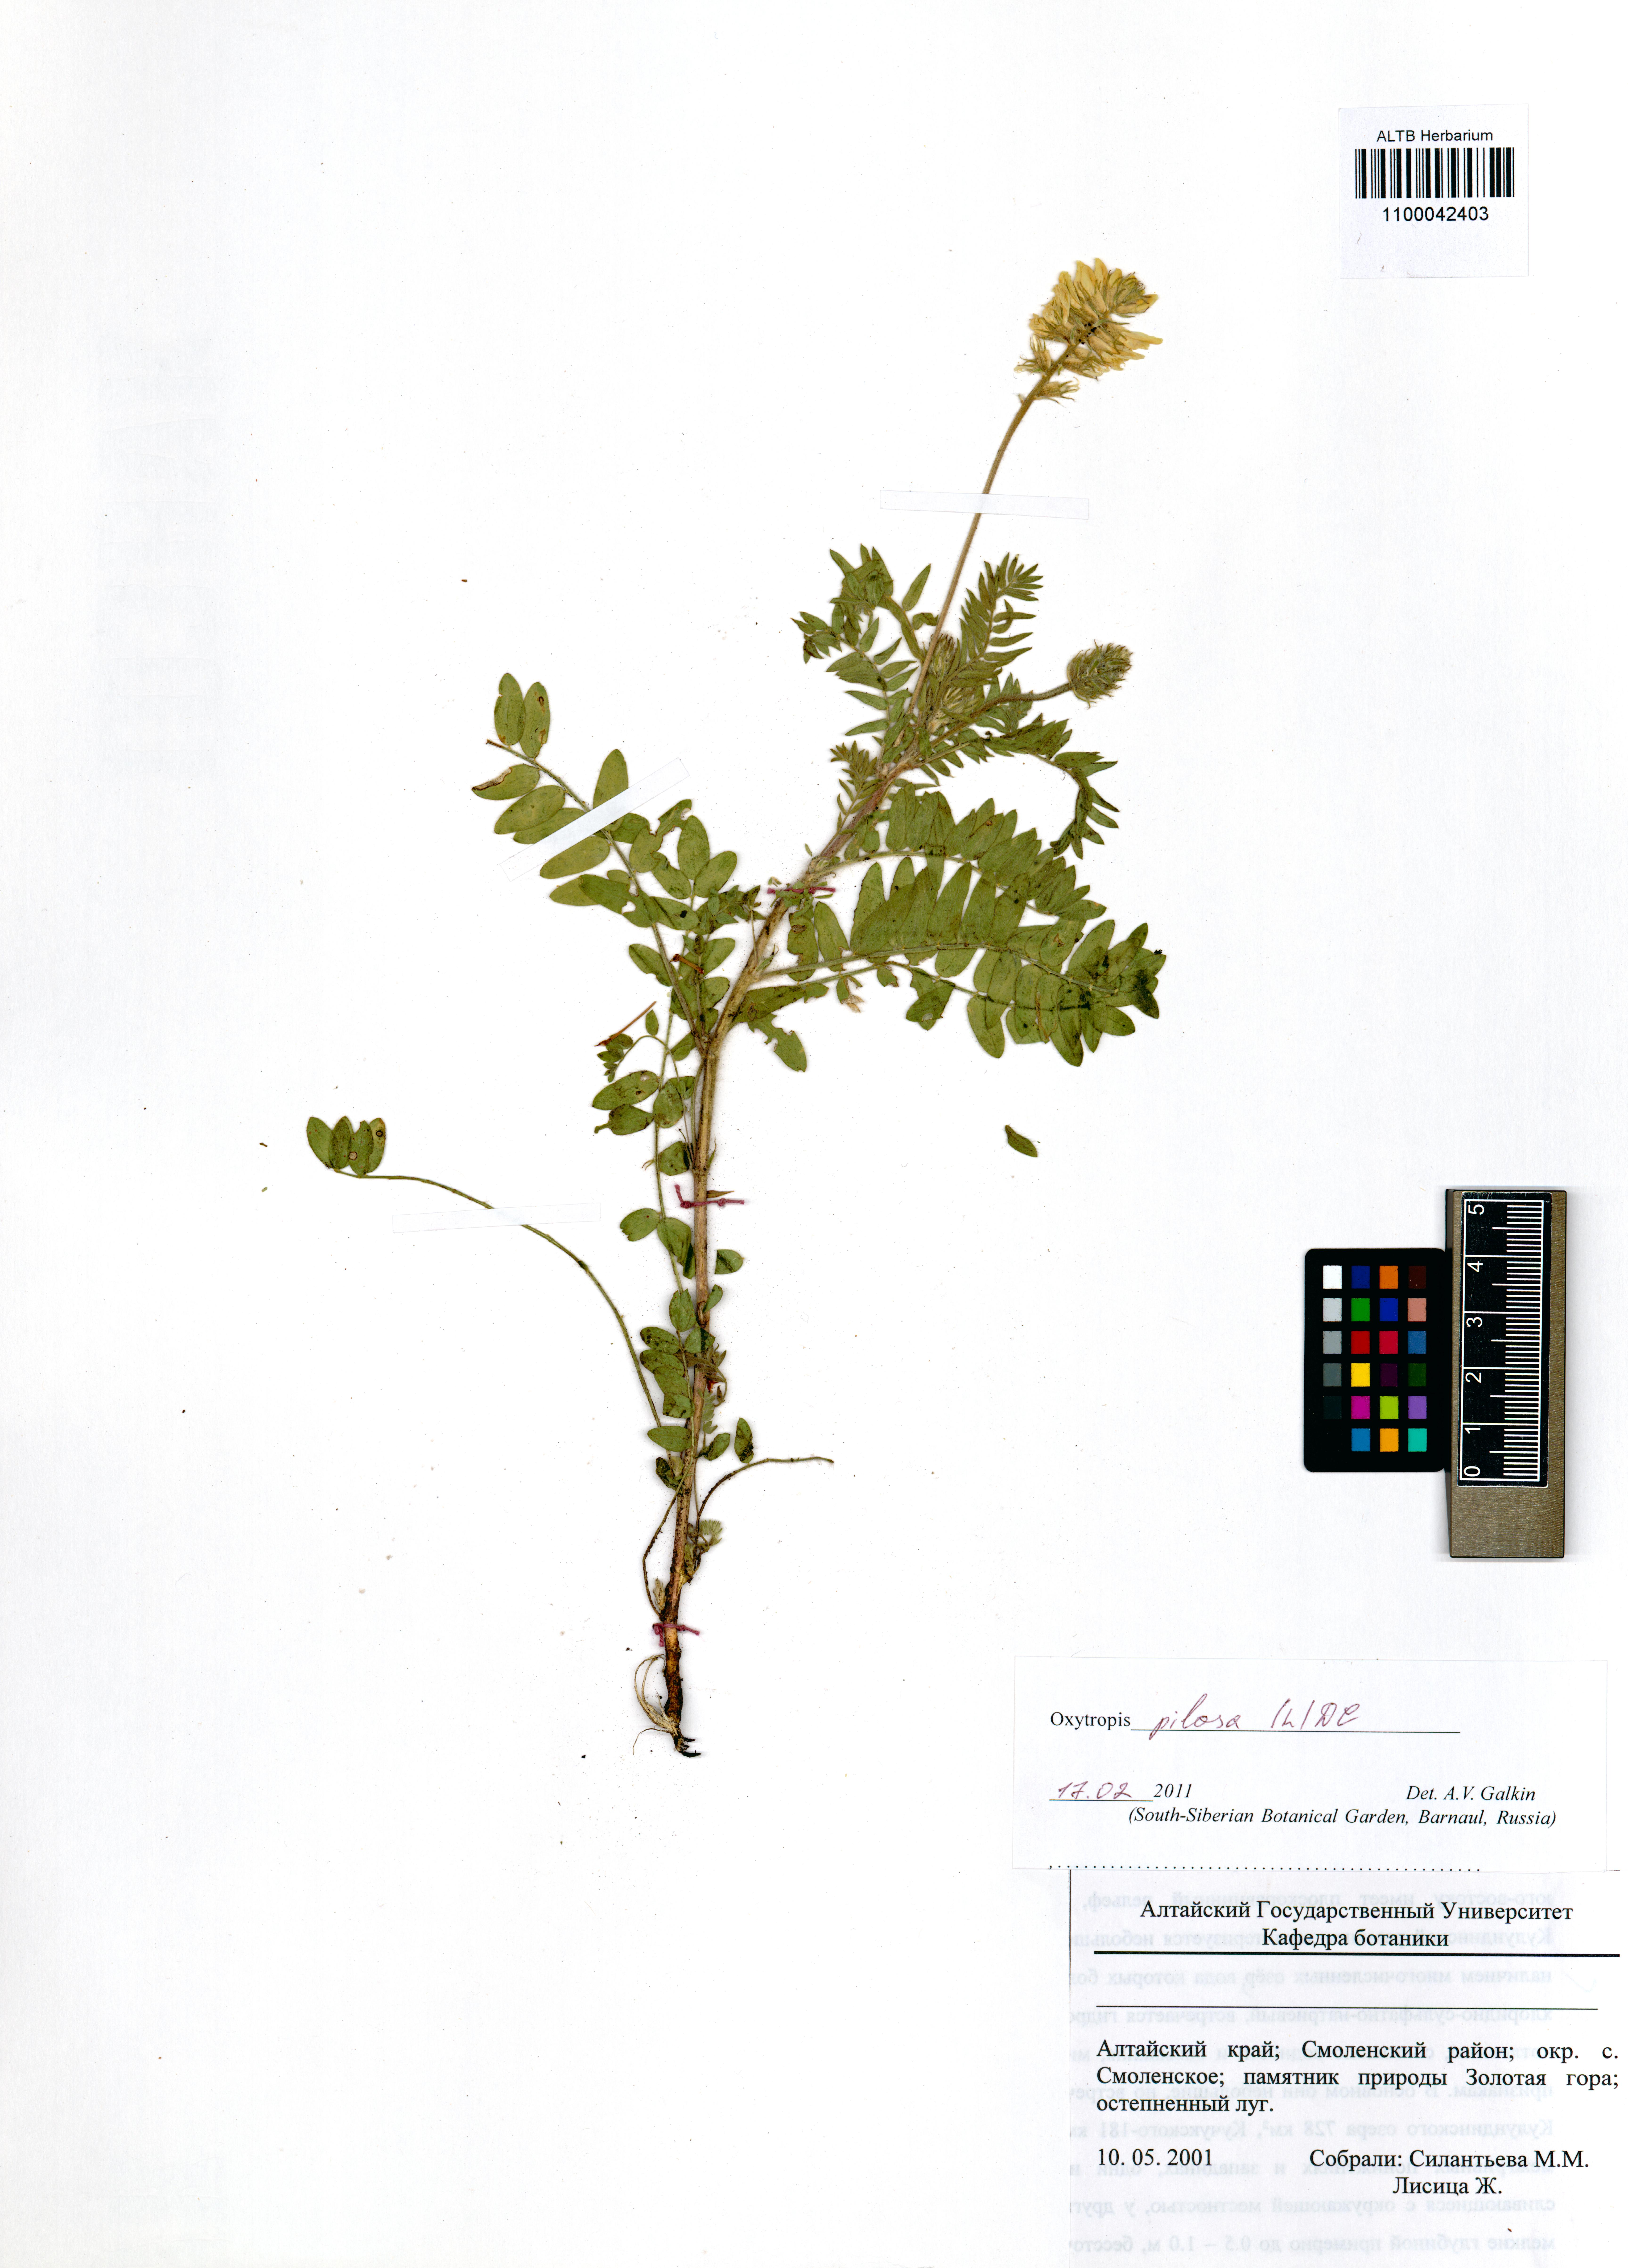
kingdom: Plantae
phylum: Tracheophyta
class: Magnoliopsida
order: Fabales
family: Fabaceae
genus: Oxytropis
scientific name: Oxytropis pilosa
